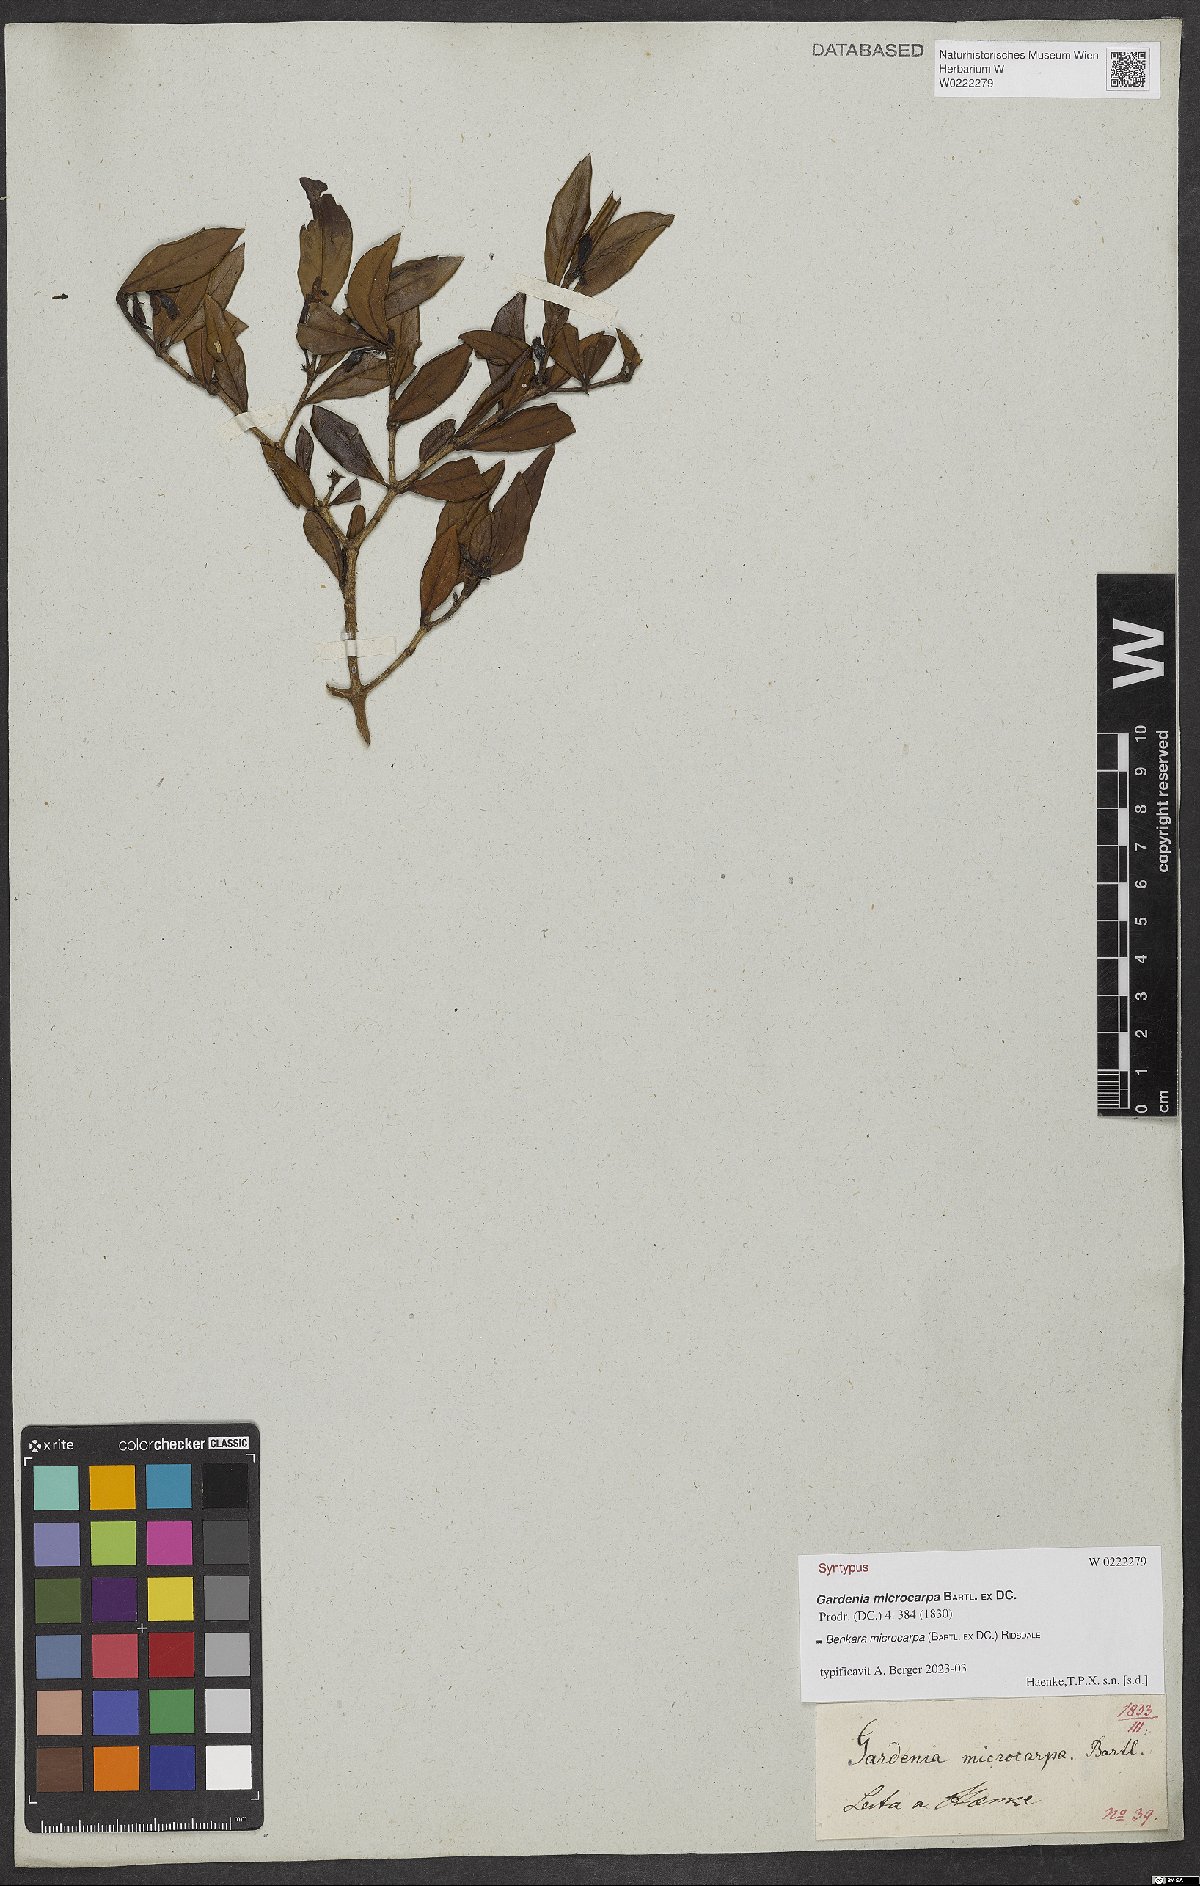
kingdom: Plantae
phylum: Tracheophyta
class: Magnoliopsida
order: Gentianales
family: Rubiaceae
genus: Benkara
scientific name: Benkara microcarpa
